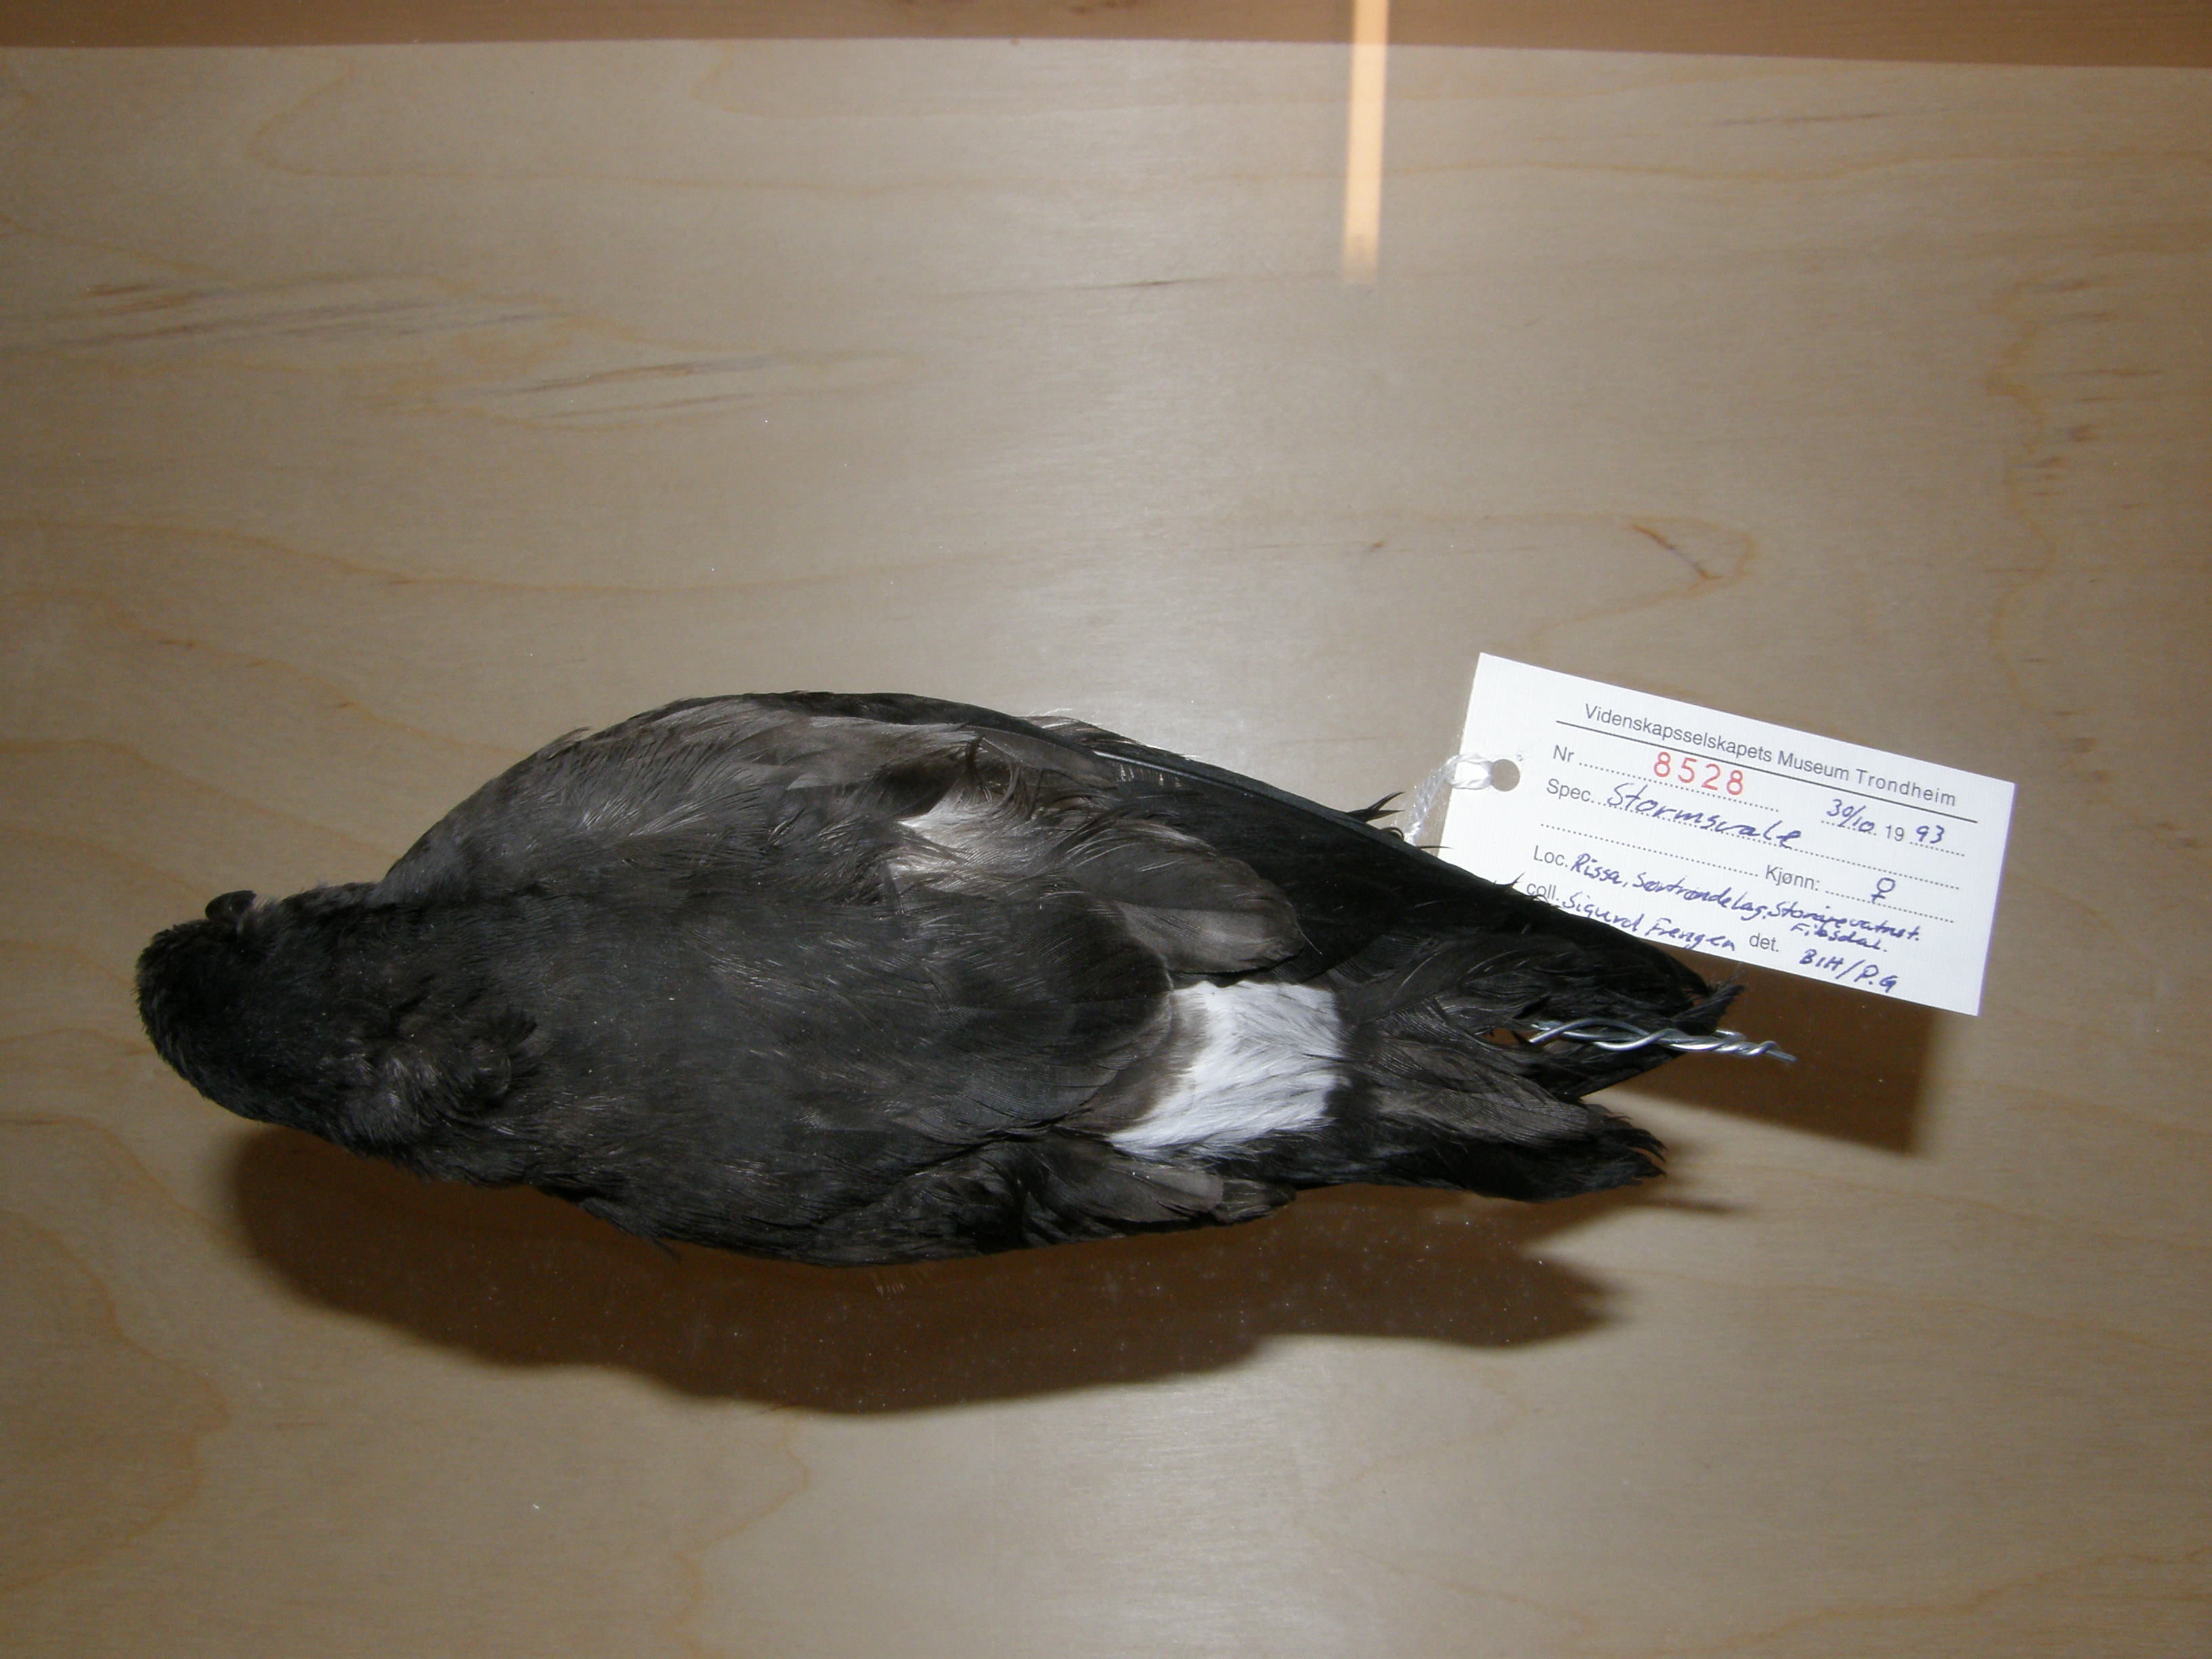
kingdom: Animalia
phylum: Chordata
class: Aves
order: Procellariiformes
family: Hydrobatidae
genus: Oceanodroma
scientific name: Oceanodroma leucorhoa
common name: Leach's storm-petrel
